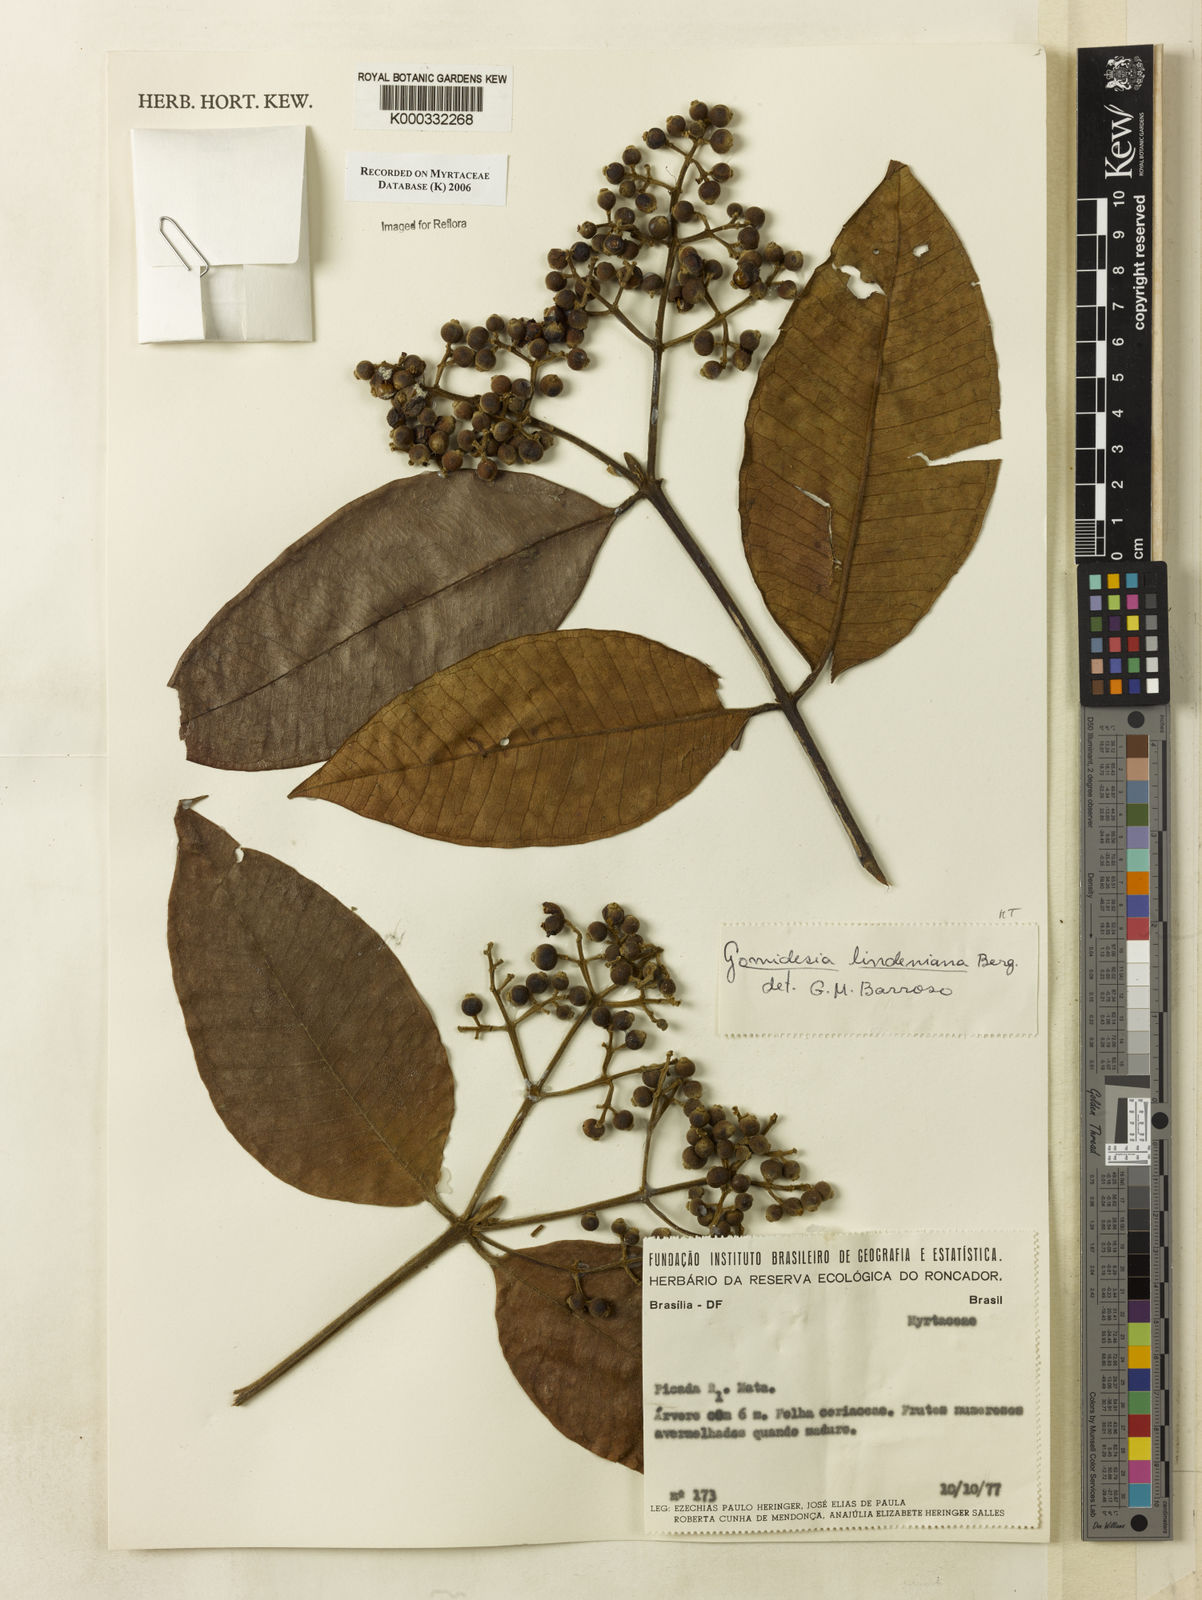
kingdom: Plantae
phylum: Tracheophyta
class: Magnoliopsida
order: Myrtales
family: Myrtaceae
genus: Myrcia
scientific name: Myrcia fenzliana
